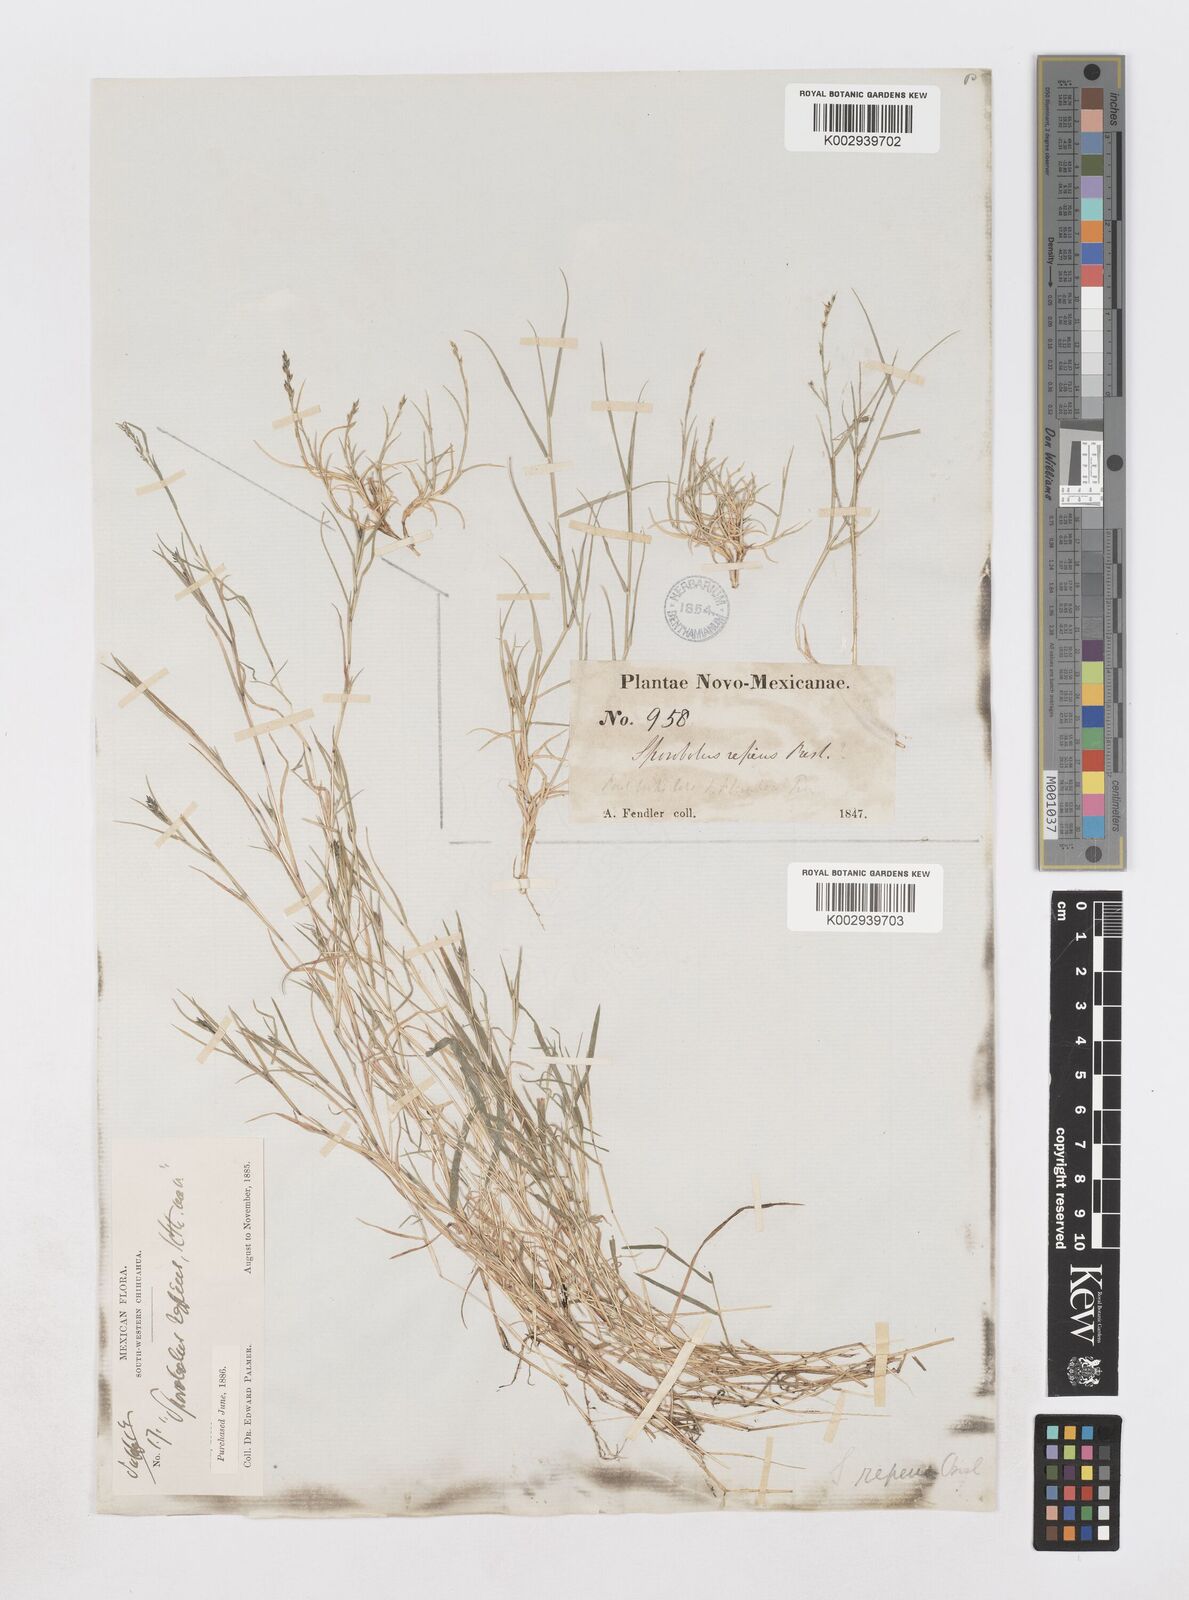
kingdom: Plantae
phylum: Tracheophyta
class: Liliopsida
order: Poales
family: Poaceae
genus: Muhlenbergia
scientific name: Muhlenbergia repens
